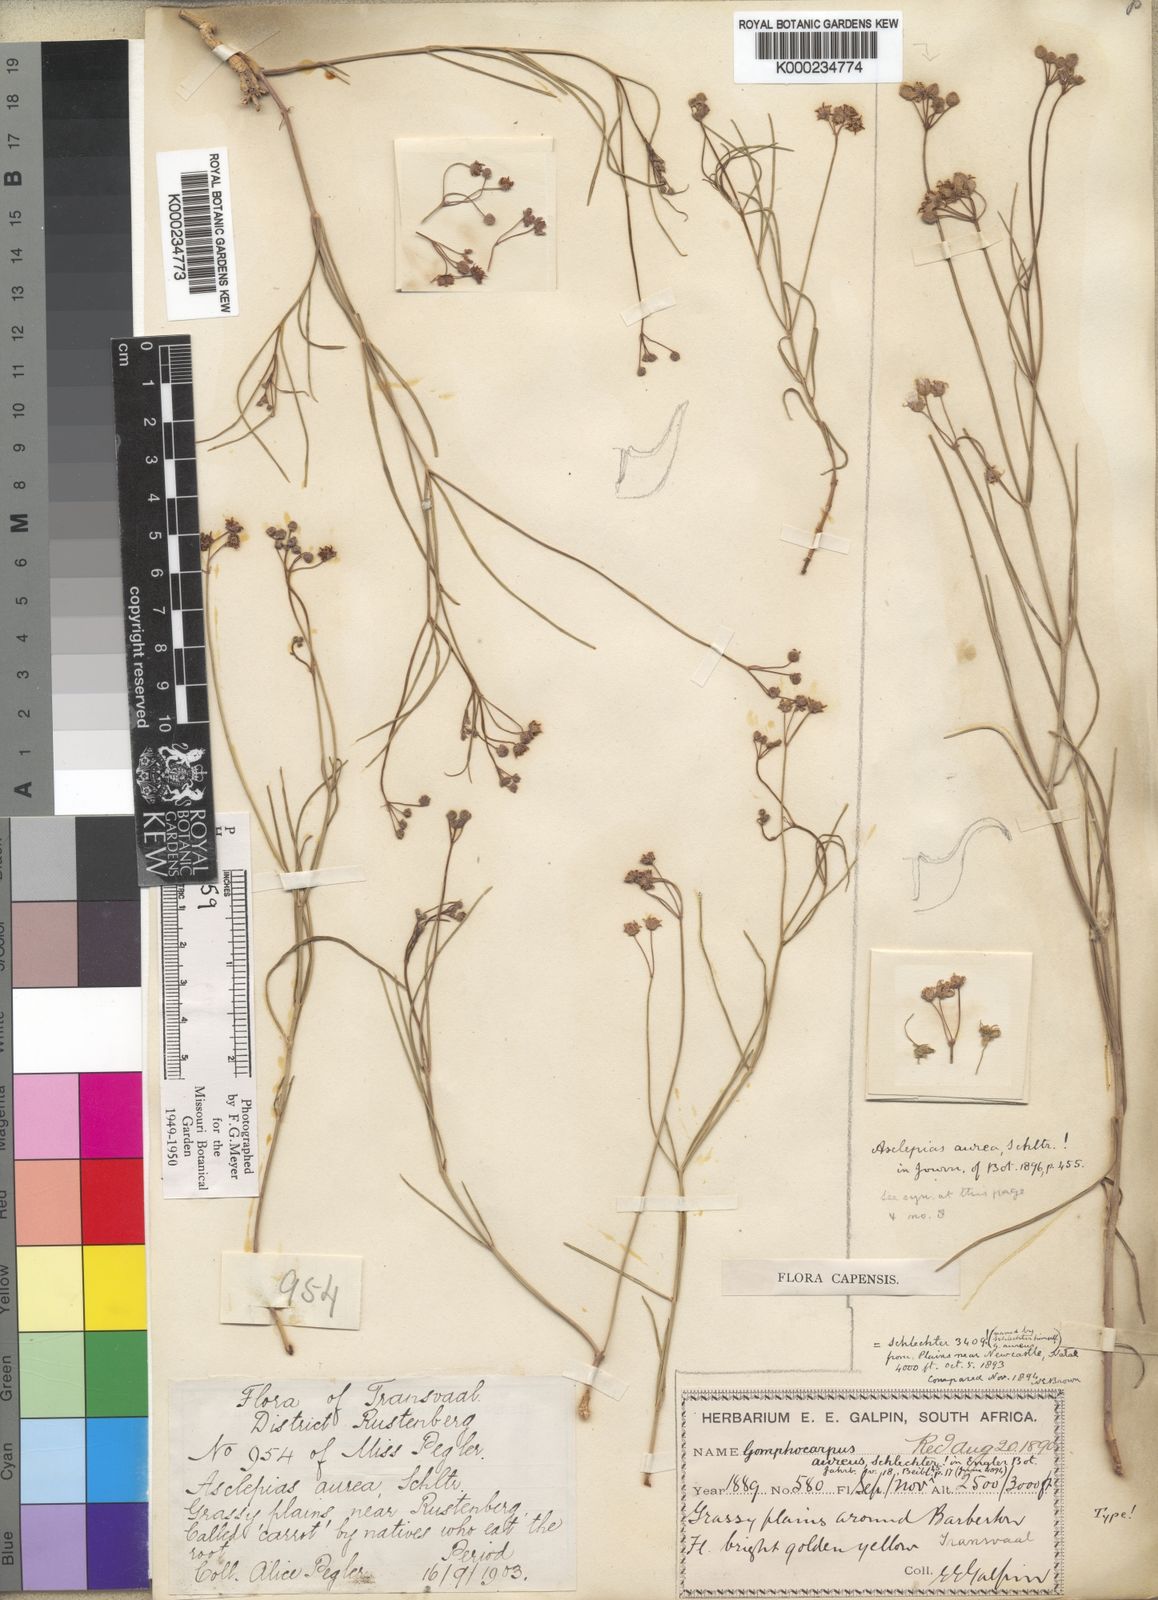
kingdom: Plantae
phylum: Tracheophyta
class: Magnoliopsida
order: Gentianales
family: Apocynaceae
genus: Asclepias
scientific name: Asclepias aurea
